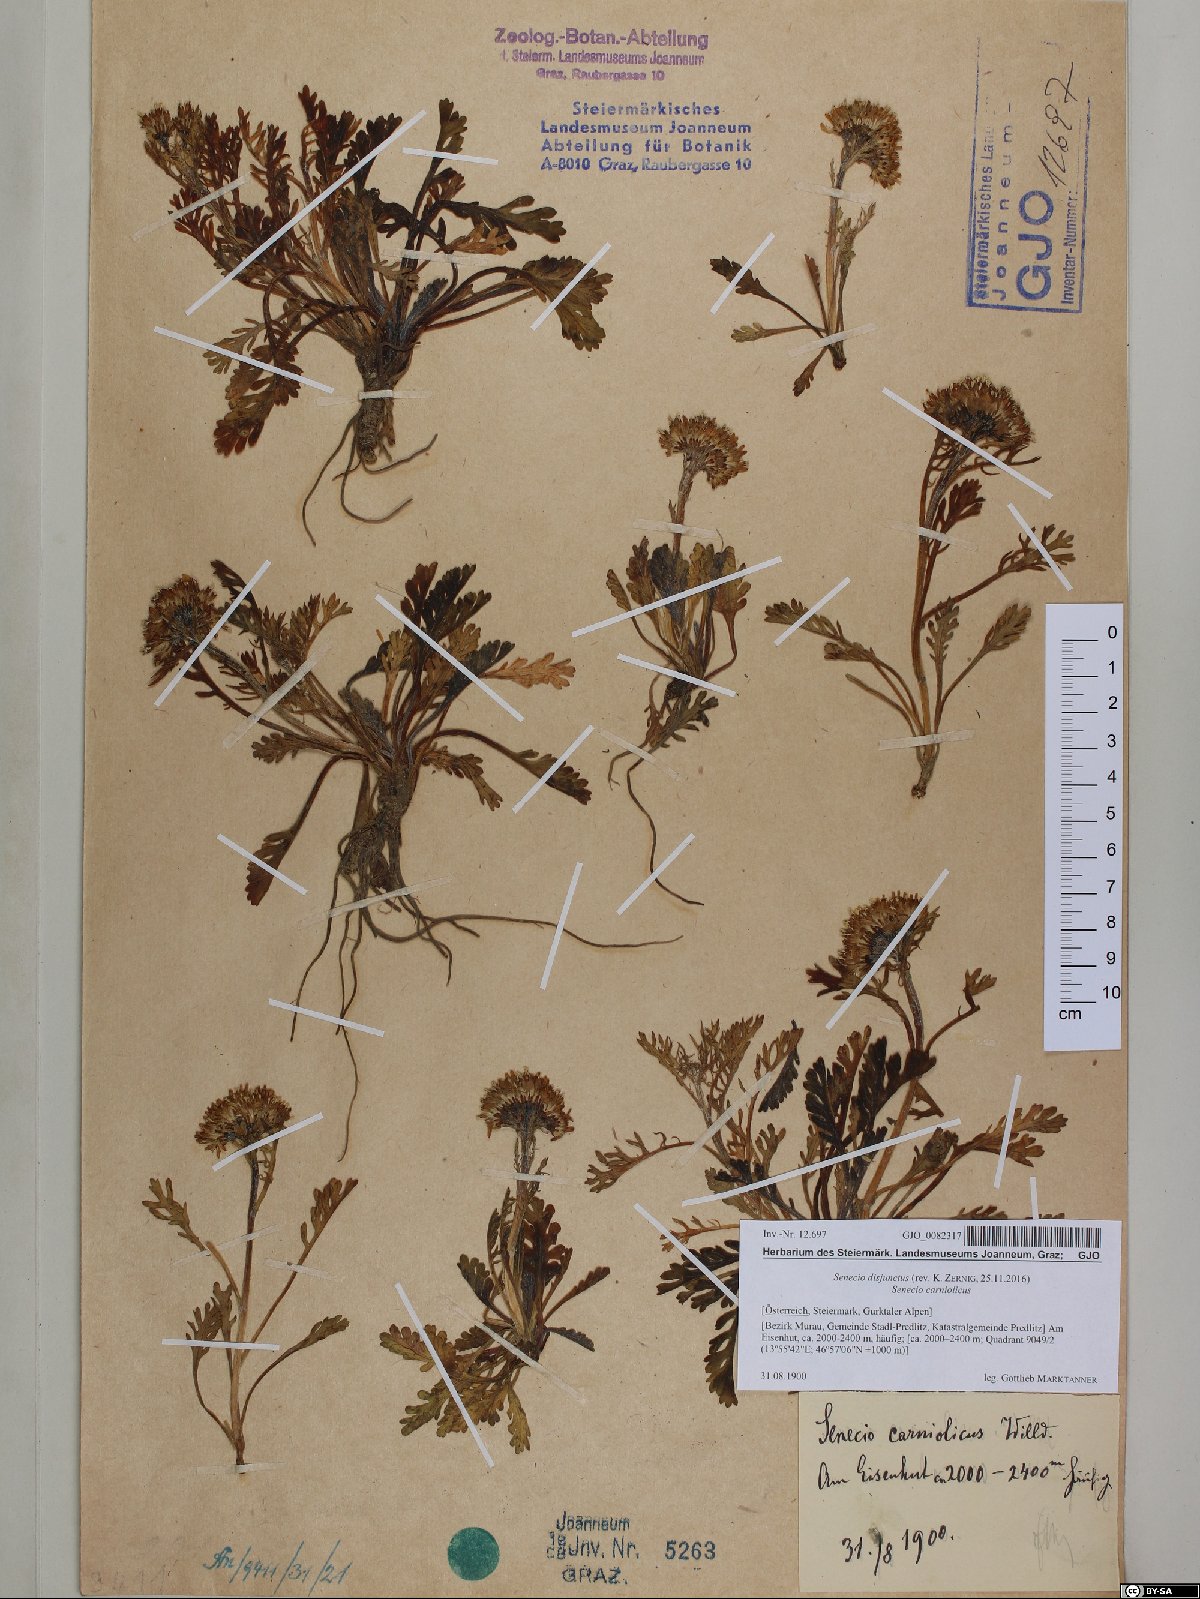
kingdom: Plantae
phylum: Tracheophyta
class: Magnoliopsida
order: Asterales
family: Asteraceae
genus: Jacobaea
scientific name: Jacobaea disjuncta
